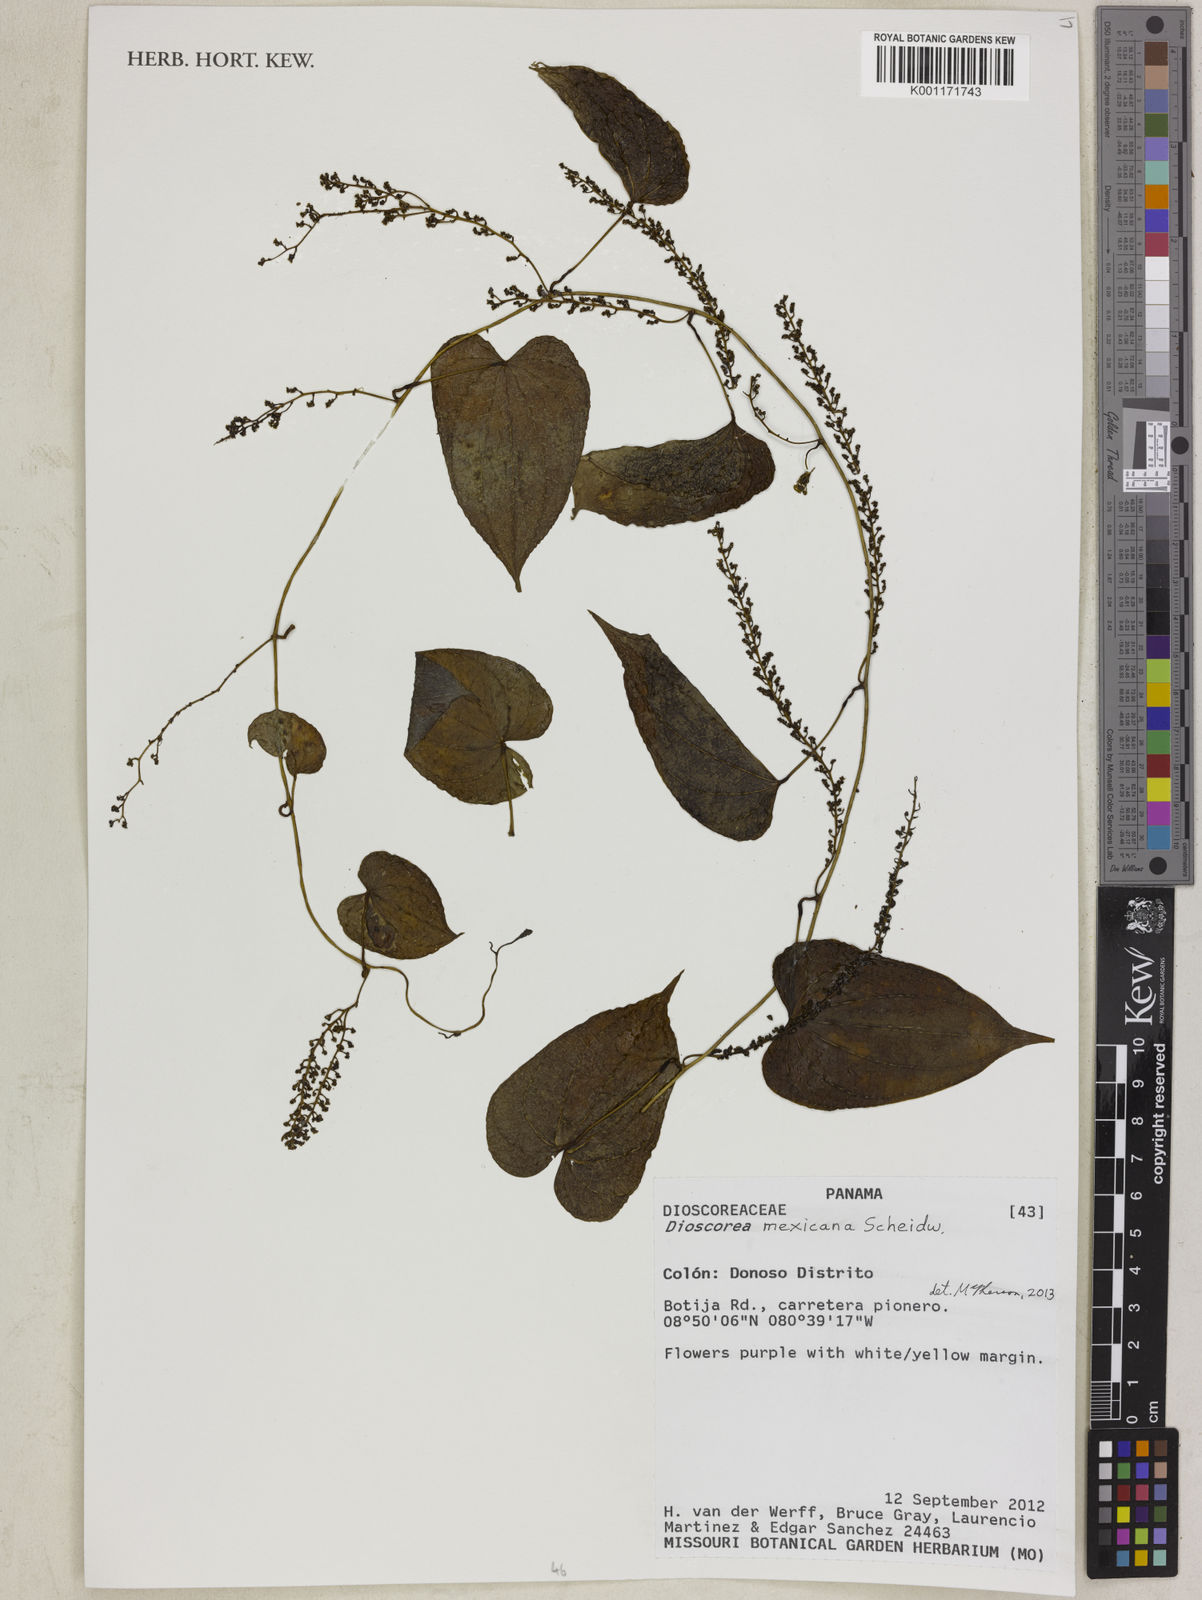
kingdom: Plantae
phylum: Tracheophyta
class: Liliopsida
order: Dioscoreales
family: Dioscoreaceae
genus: Dioscorea
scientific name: Dioscorea mexicana
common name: Mexican yam
